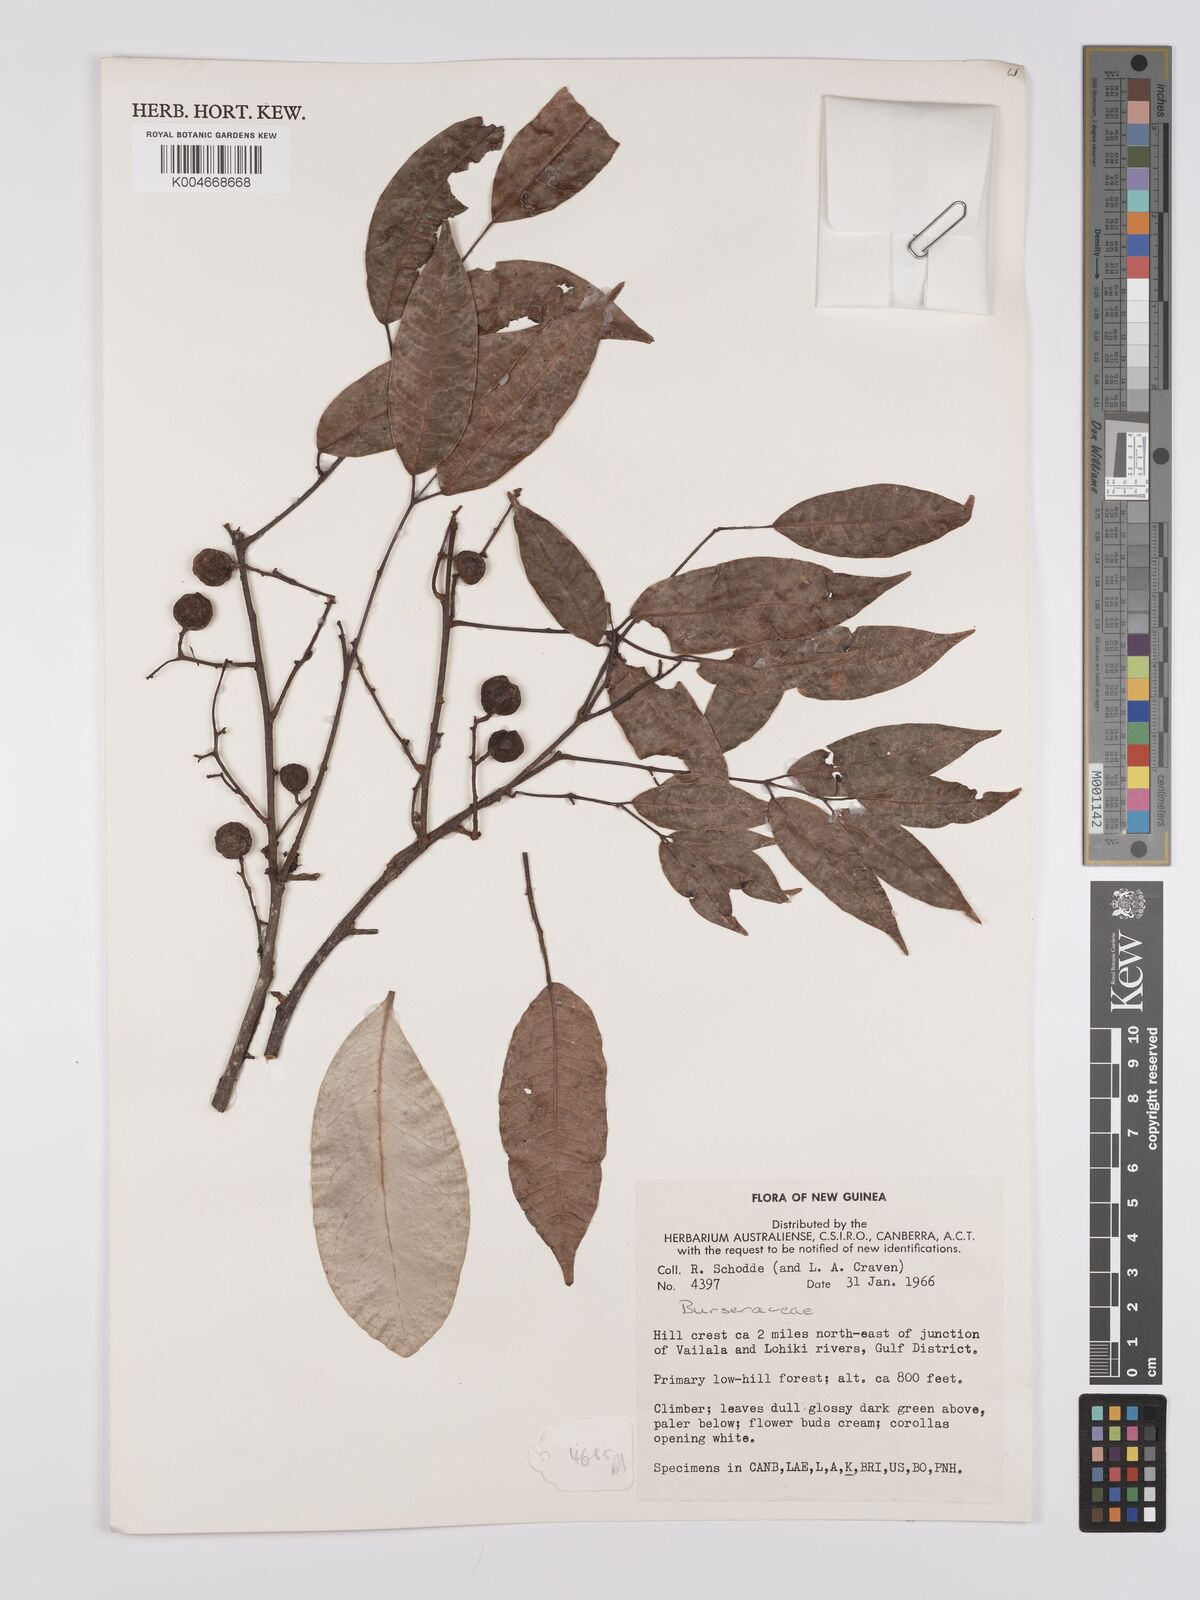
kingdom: Plantae
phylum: Tracheophyta
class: Magnoliopsida
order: Sapindales
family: Burseraceae
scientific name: Burseraceae
